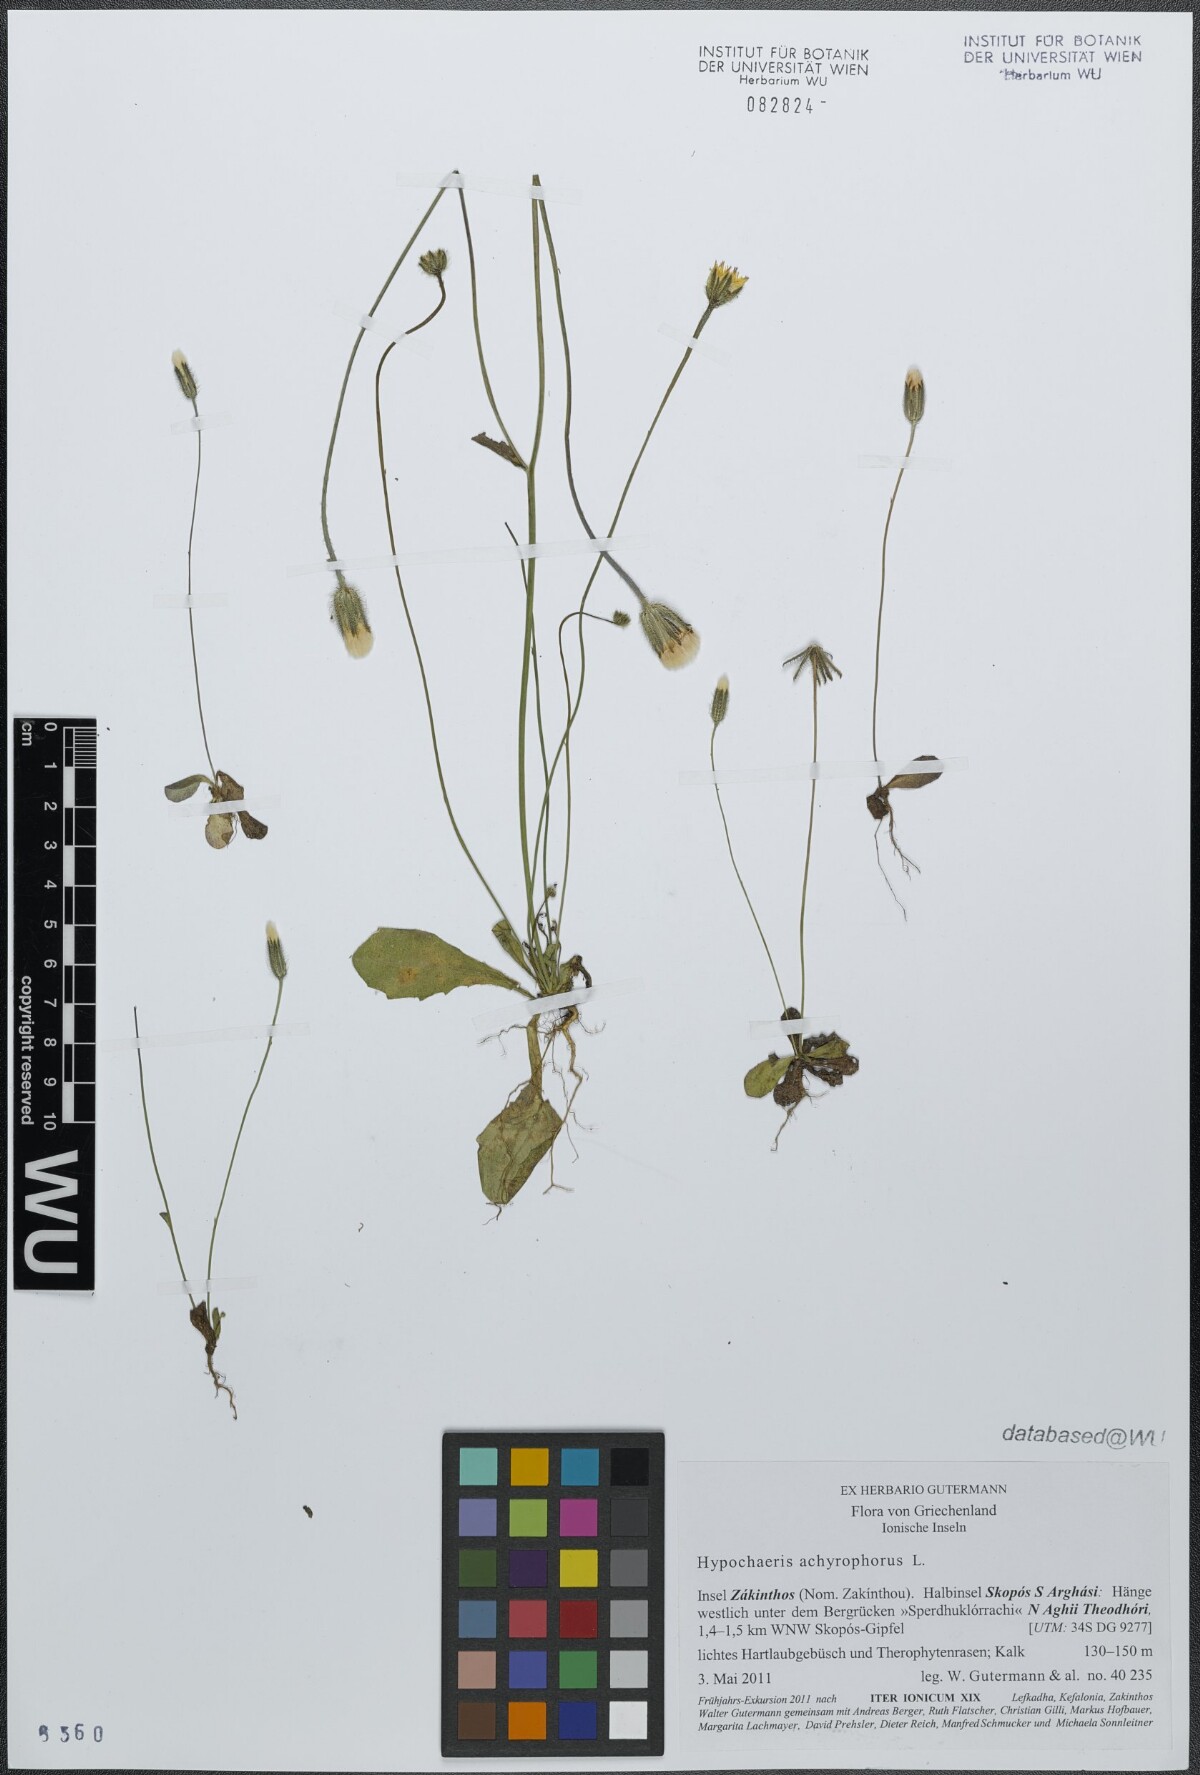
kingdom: Plantae
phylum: Tracheophyta
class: Magnoliopsida
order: Asterales
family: Asteraceae
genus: Achyrophorus
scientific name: Achyrophorus valdesii
